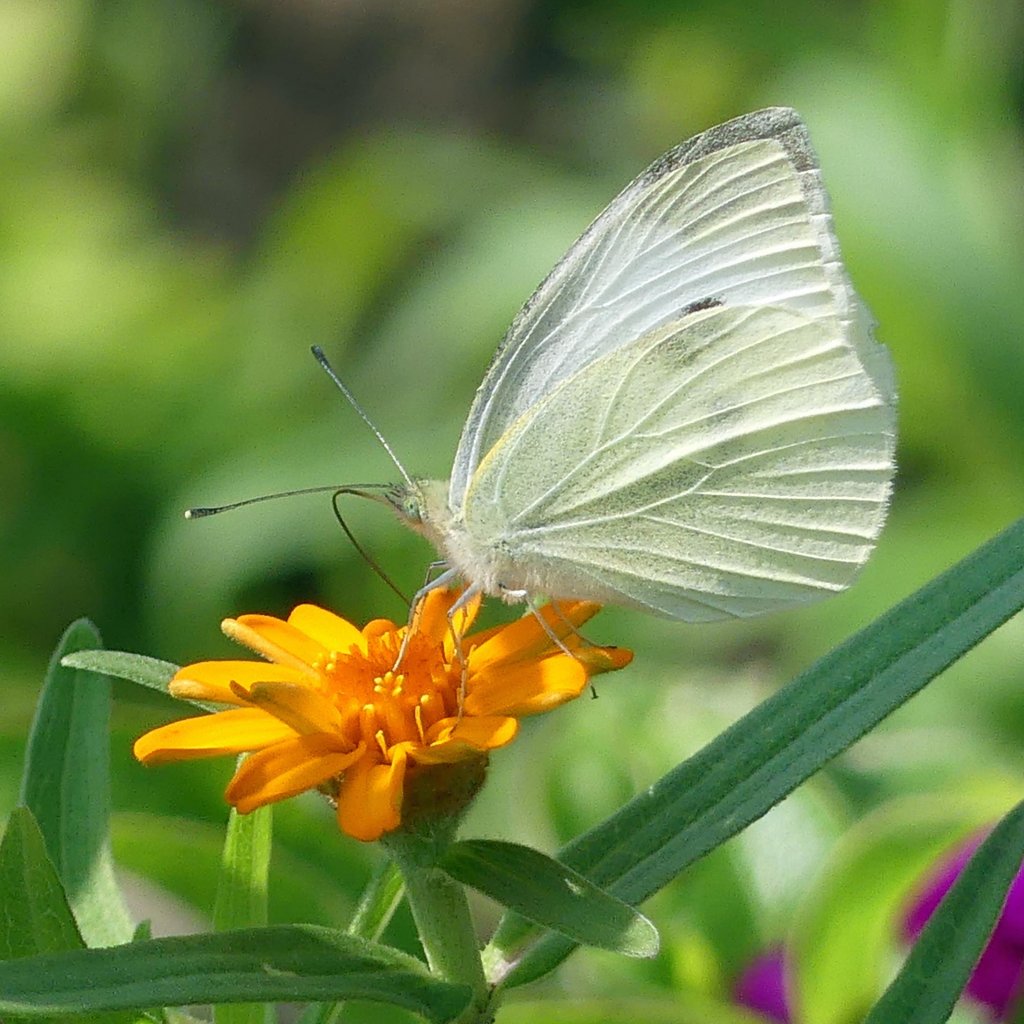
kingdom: Animalia
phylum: Arthropoda
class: Insecta
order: Lepidoptera
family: Pieridae
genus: Pieris
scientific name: Pieris rapae
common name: Cabbage White
